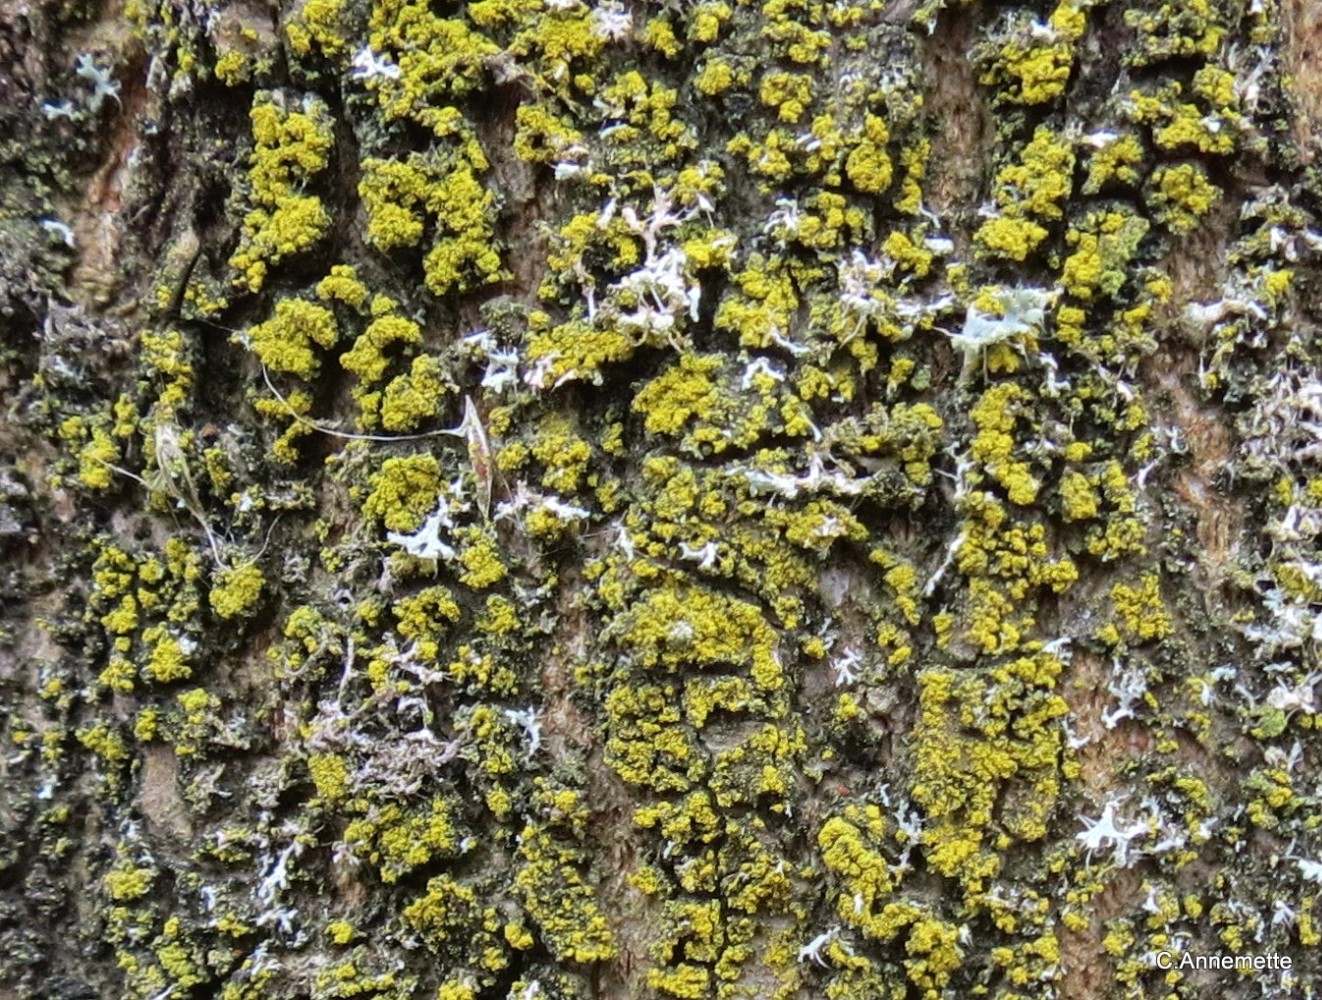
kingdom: Fungi
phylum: Ascomycota
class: Candelariomycetes
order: Candelariales
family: Candelariaceae
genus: Candelariella
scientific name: Candelariella xanthostigma
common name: kornet æggeblommelav
